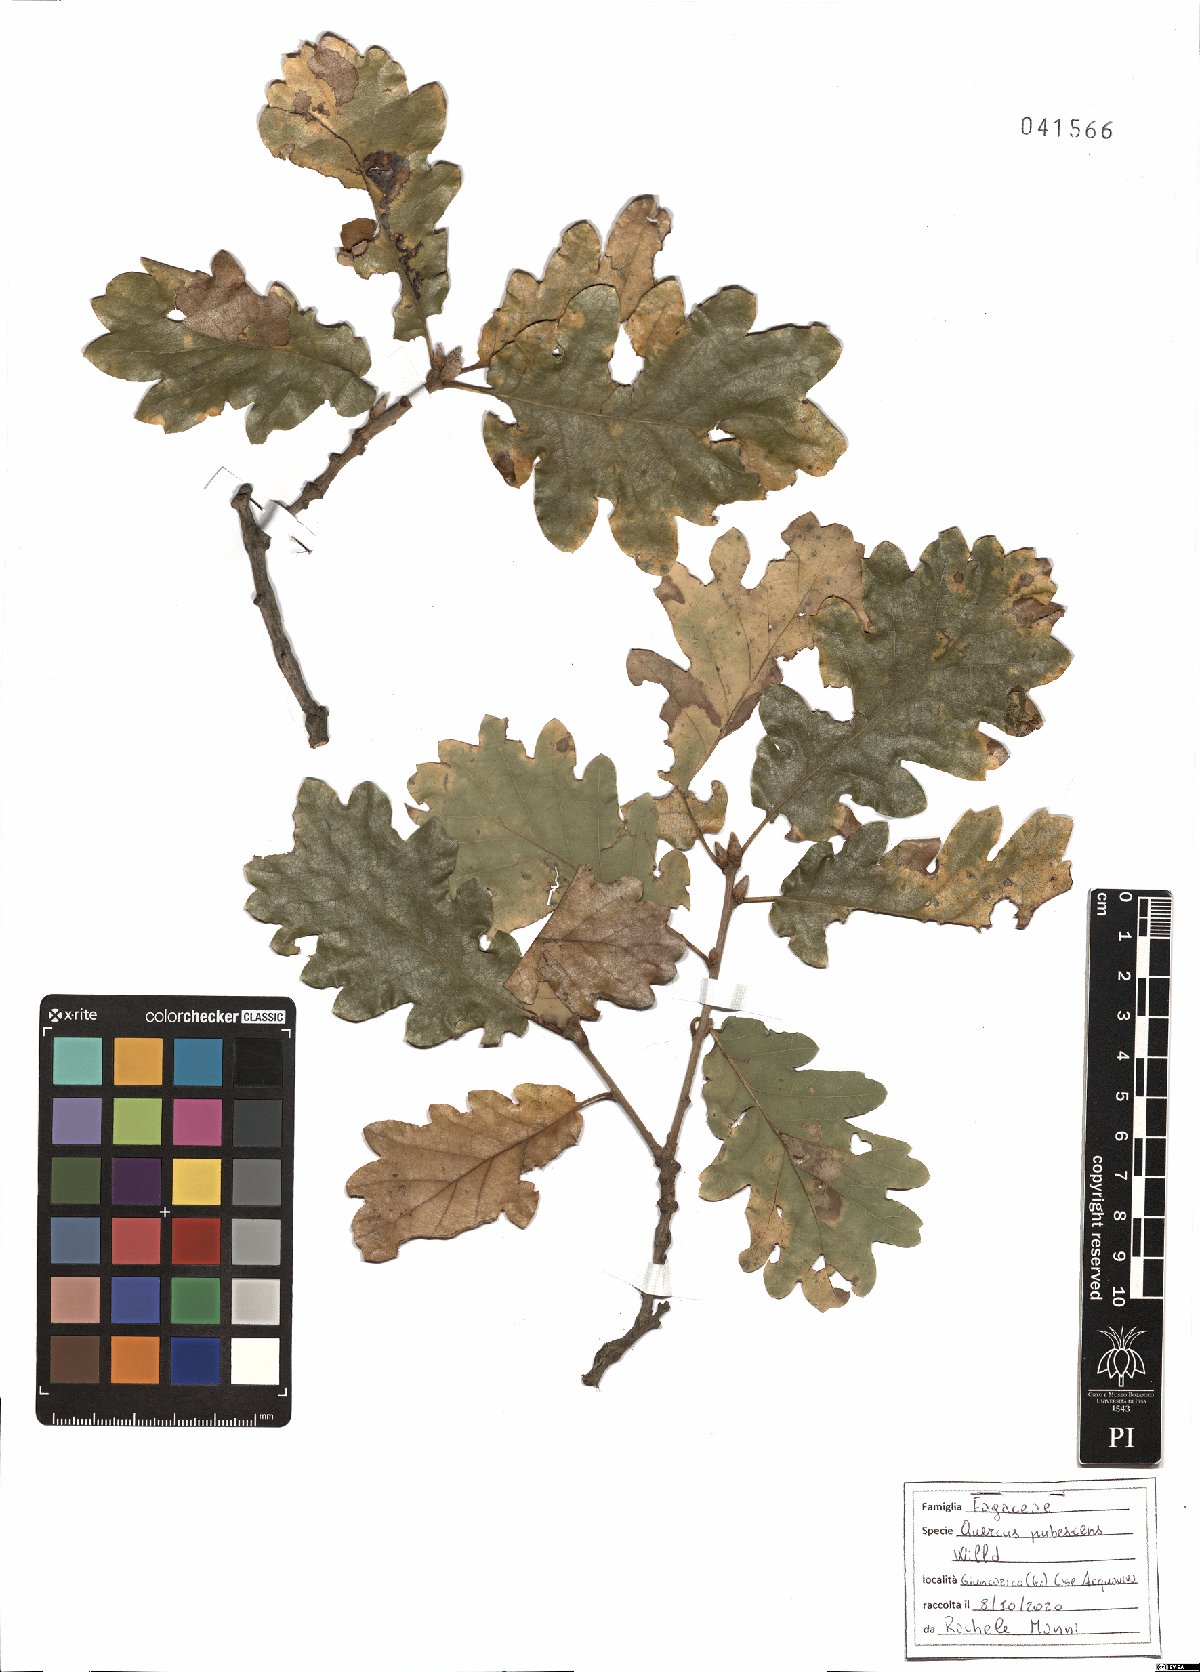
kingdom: Plantae
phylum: Tracheophyta
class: Magnoliopsida
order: Fagales
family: Fagaceae
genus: Quercus
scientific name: Quercus pubescens
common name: Downy oak
